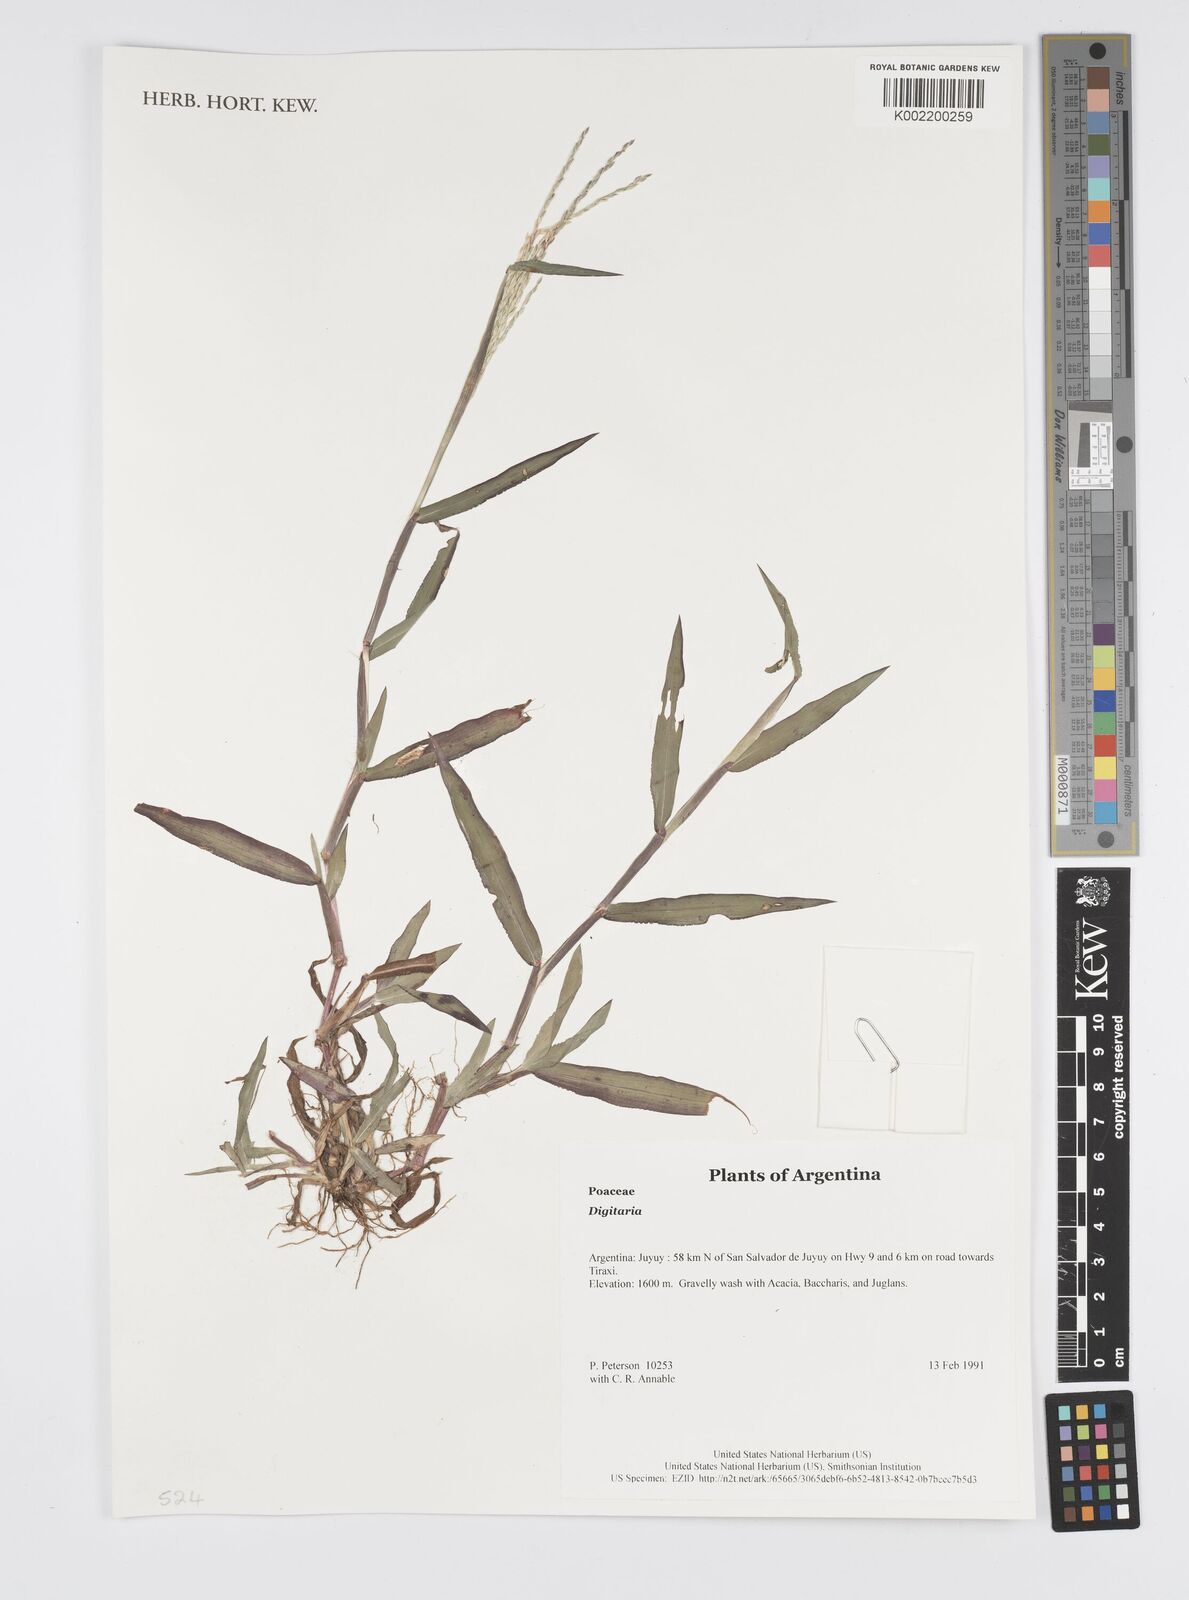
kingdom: Plantae
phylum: Tracheophyta
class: Liliopsida
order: Poales
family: Poaceae
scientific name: Poaceae
